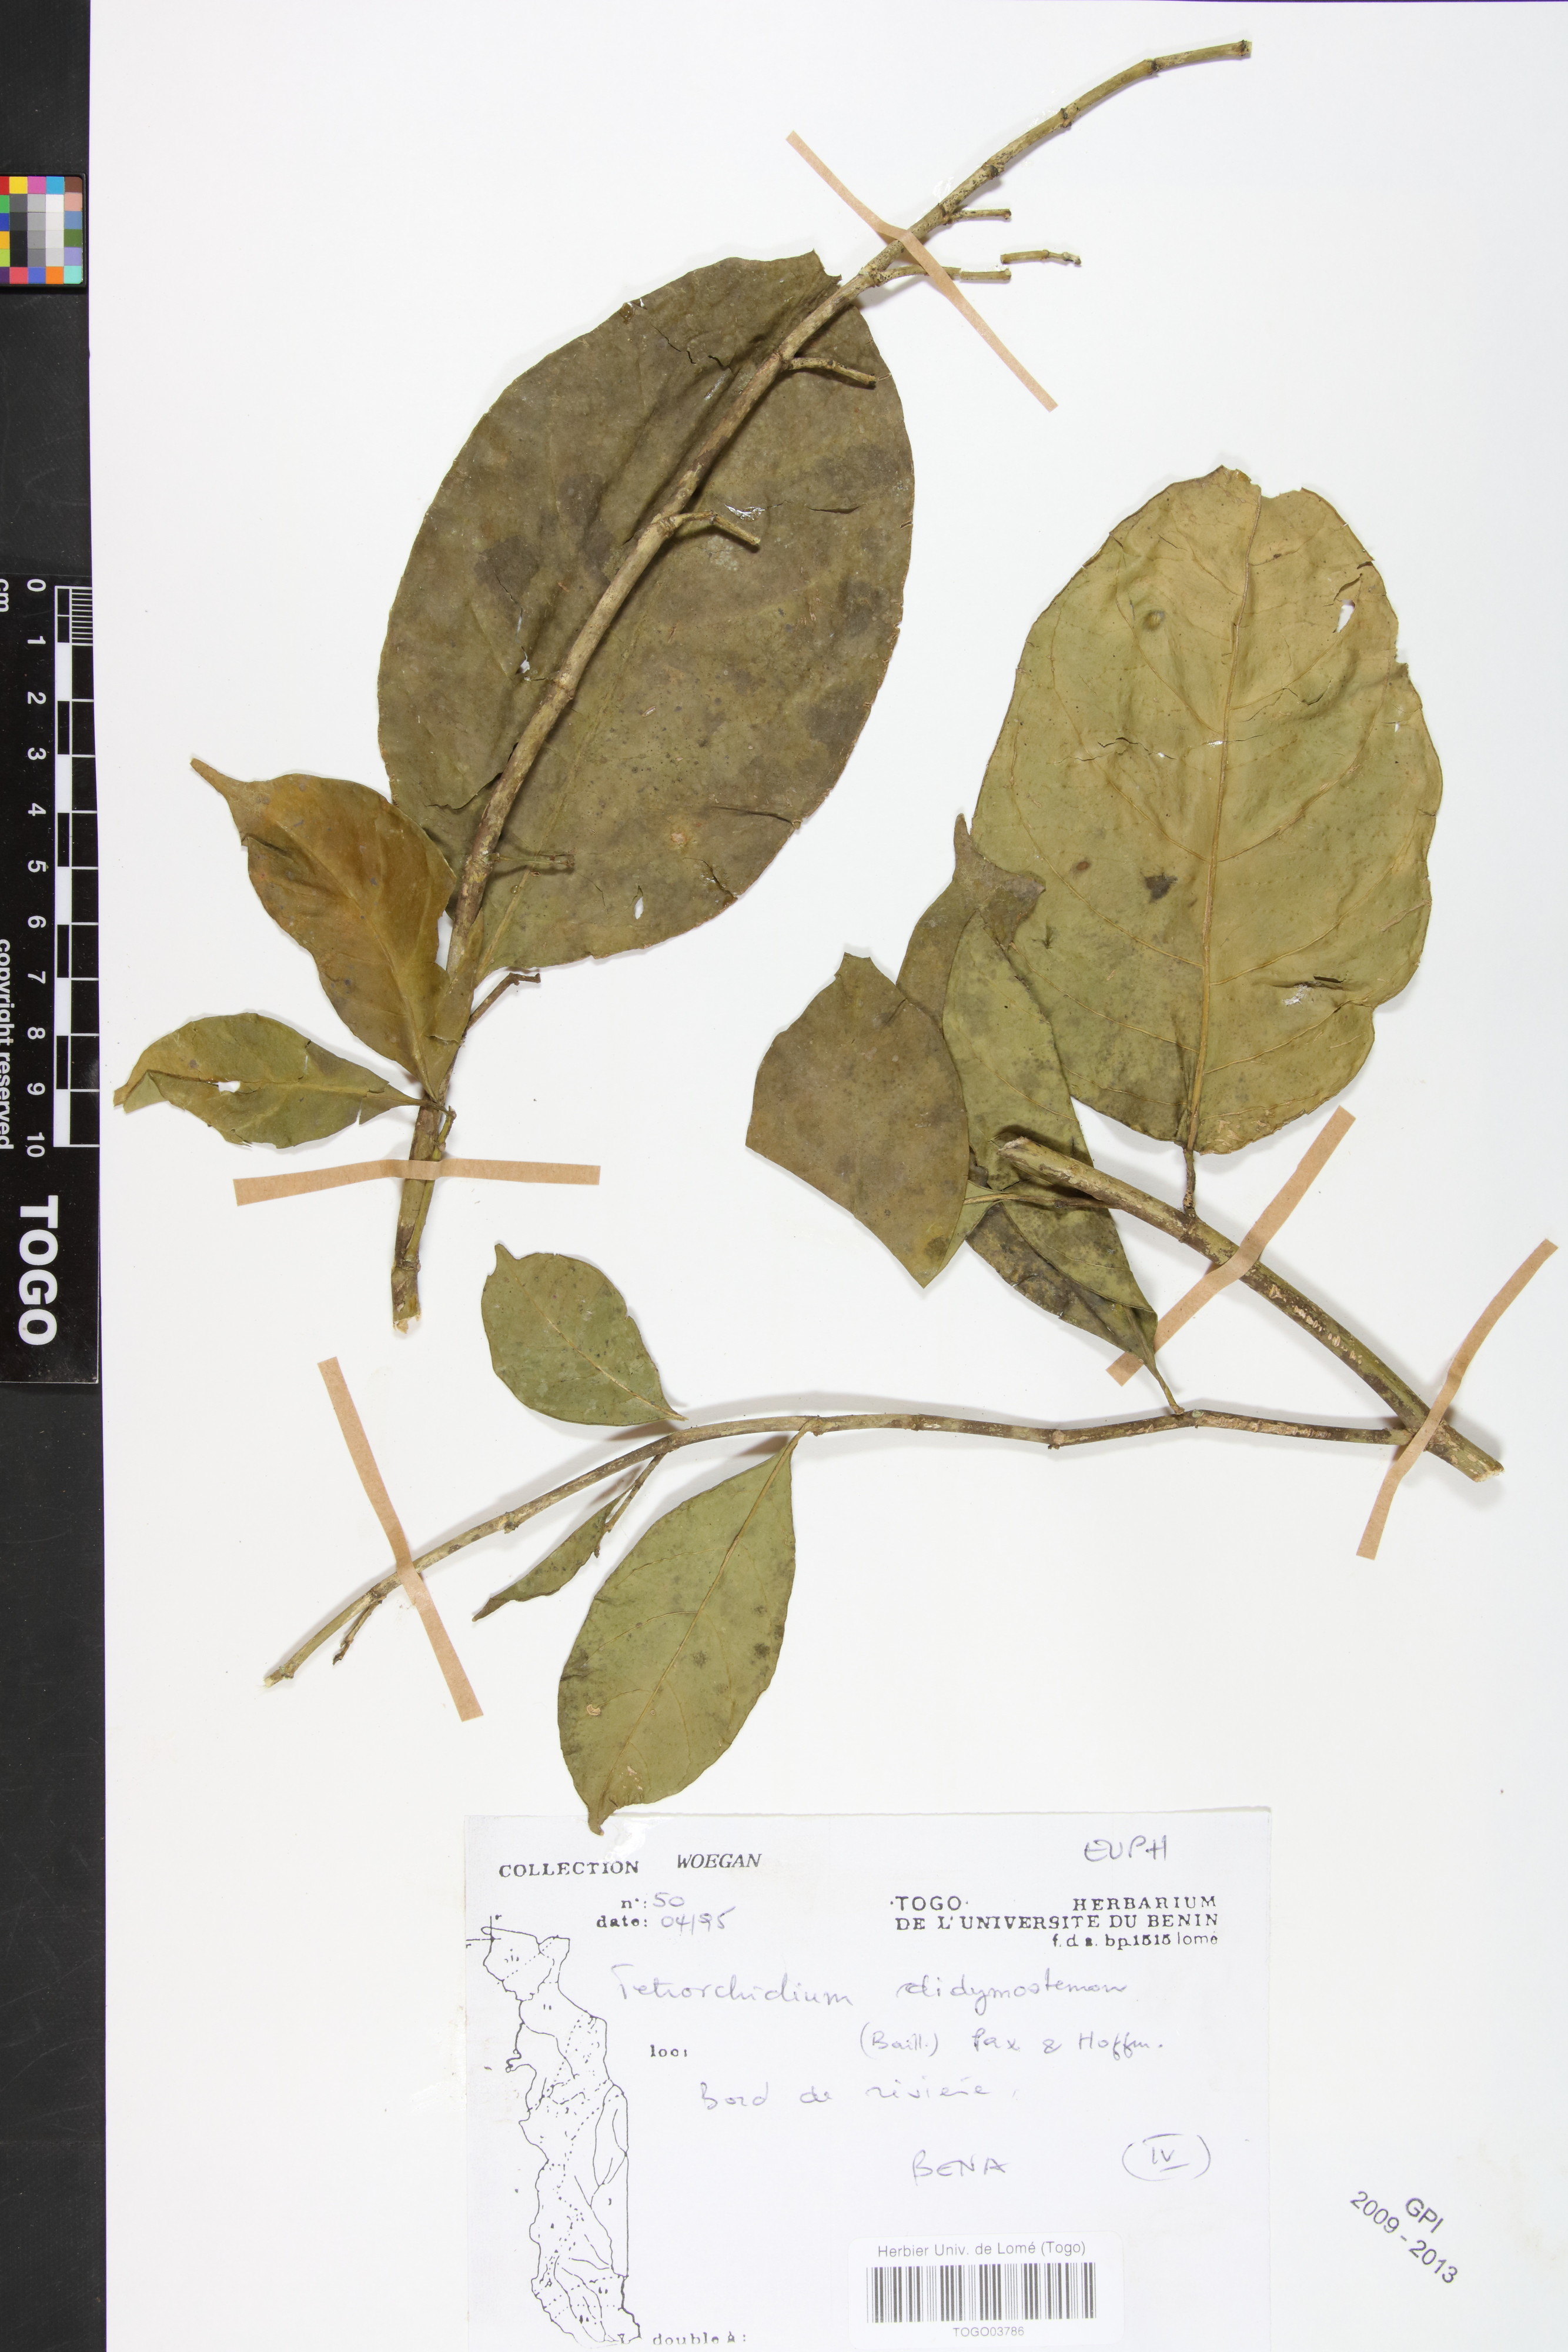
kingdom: Plantae
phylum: Tracheophyta
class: Magnoliopsida
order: Malpighiales
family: Euphorbiaceae
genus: Tetrorchidium
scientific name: Tetrorchidium didymostemon
